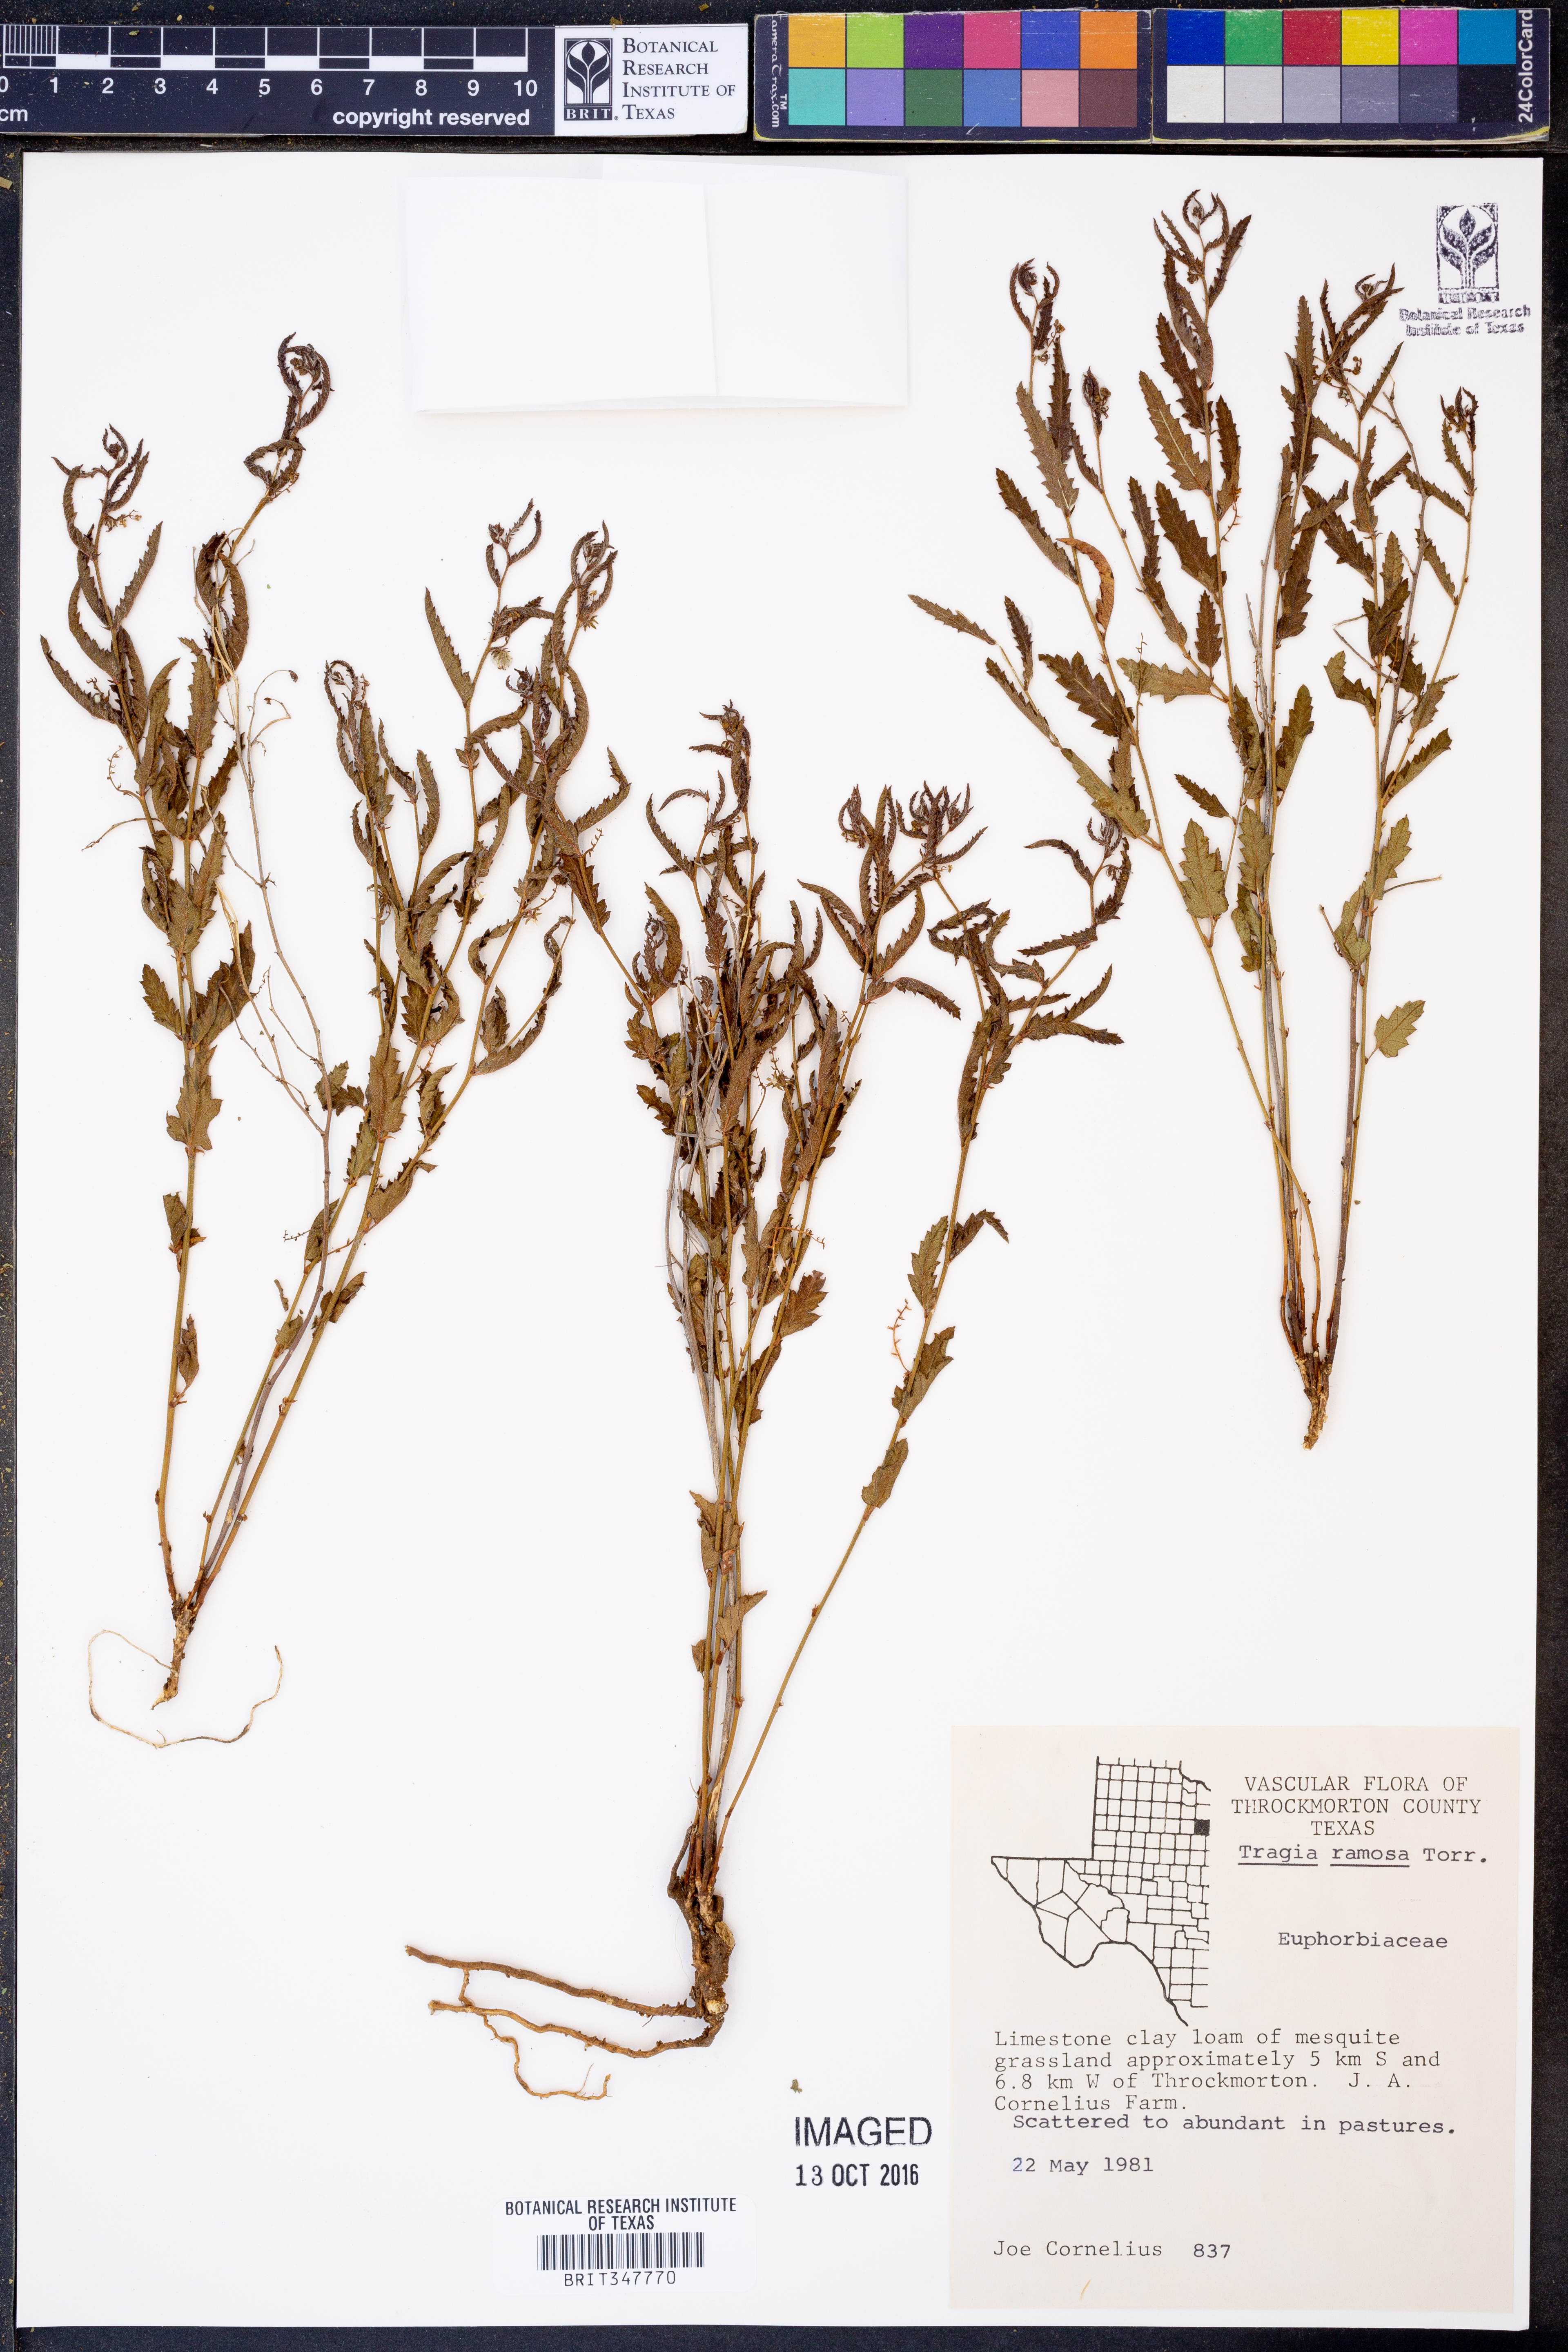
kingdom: Plantae
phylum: Tracheophyta
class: Magnoliopsida
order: Malpighiales
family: Euphorbiaceae
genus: Tragia
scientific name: Tragia ramosa
